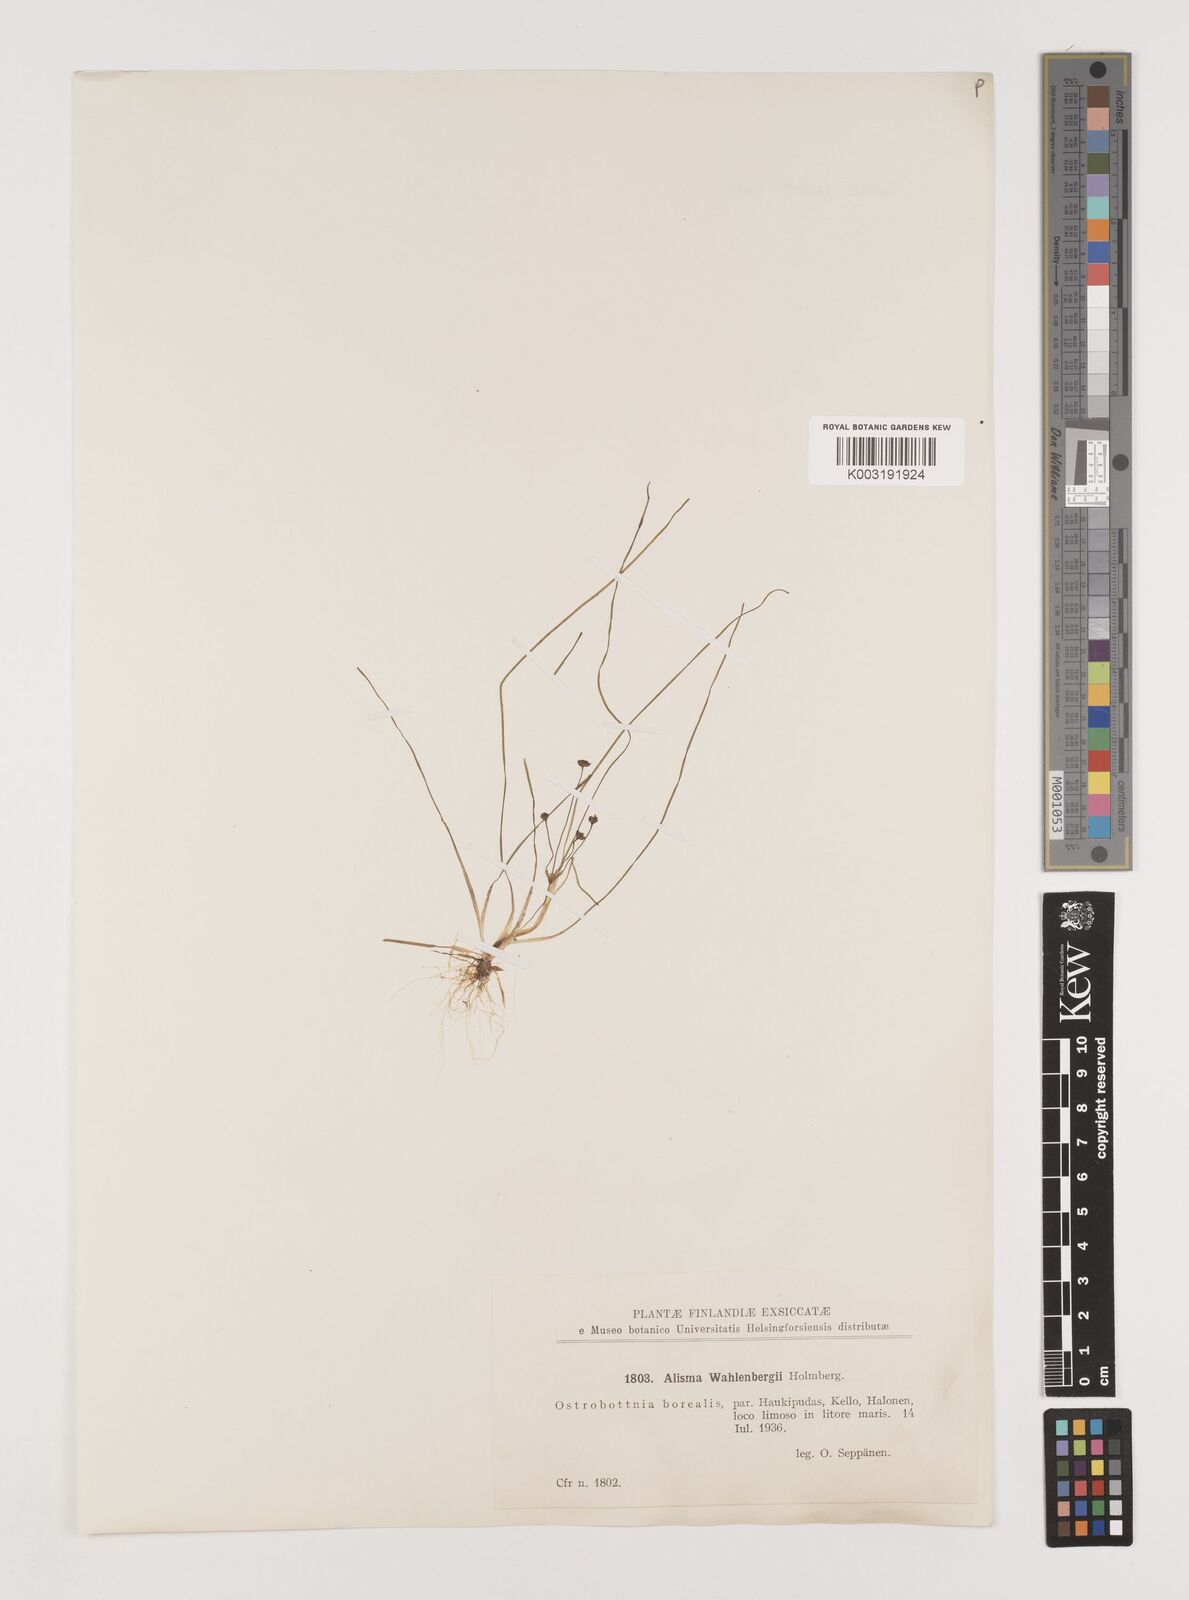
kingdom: Plantae
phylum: Tracheophyta
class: Liliopsida
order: Alismatales
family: Alismataceae
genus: Alisma
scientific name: Alisma wahlenbergii
